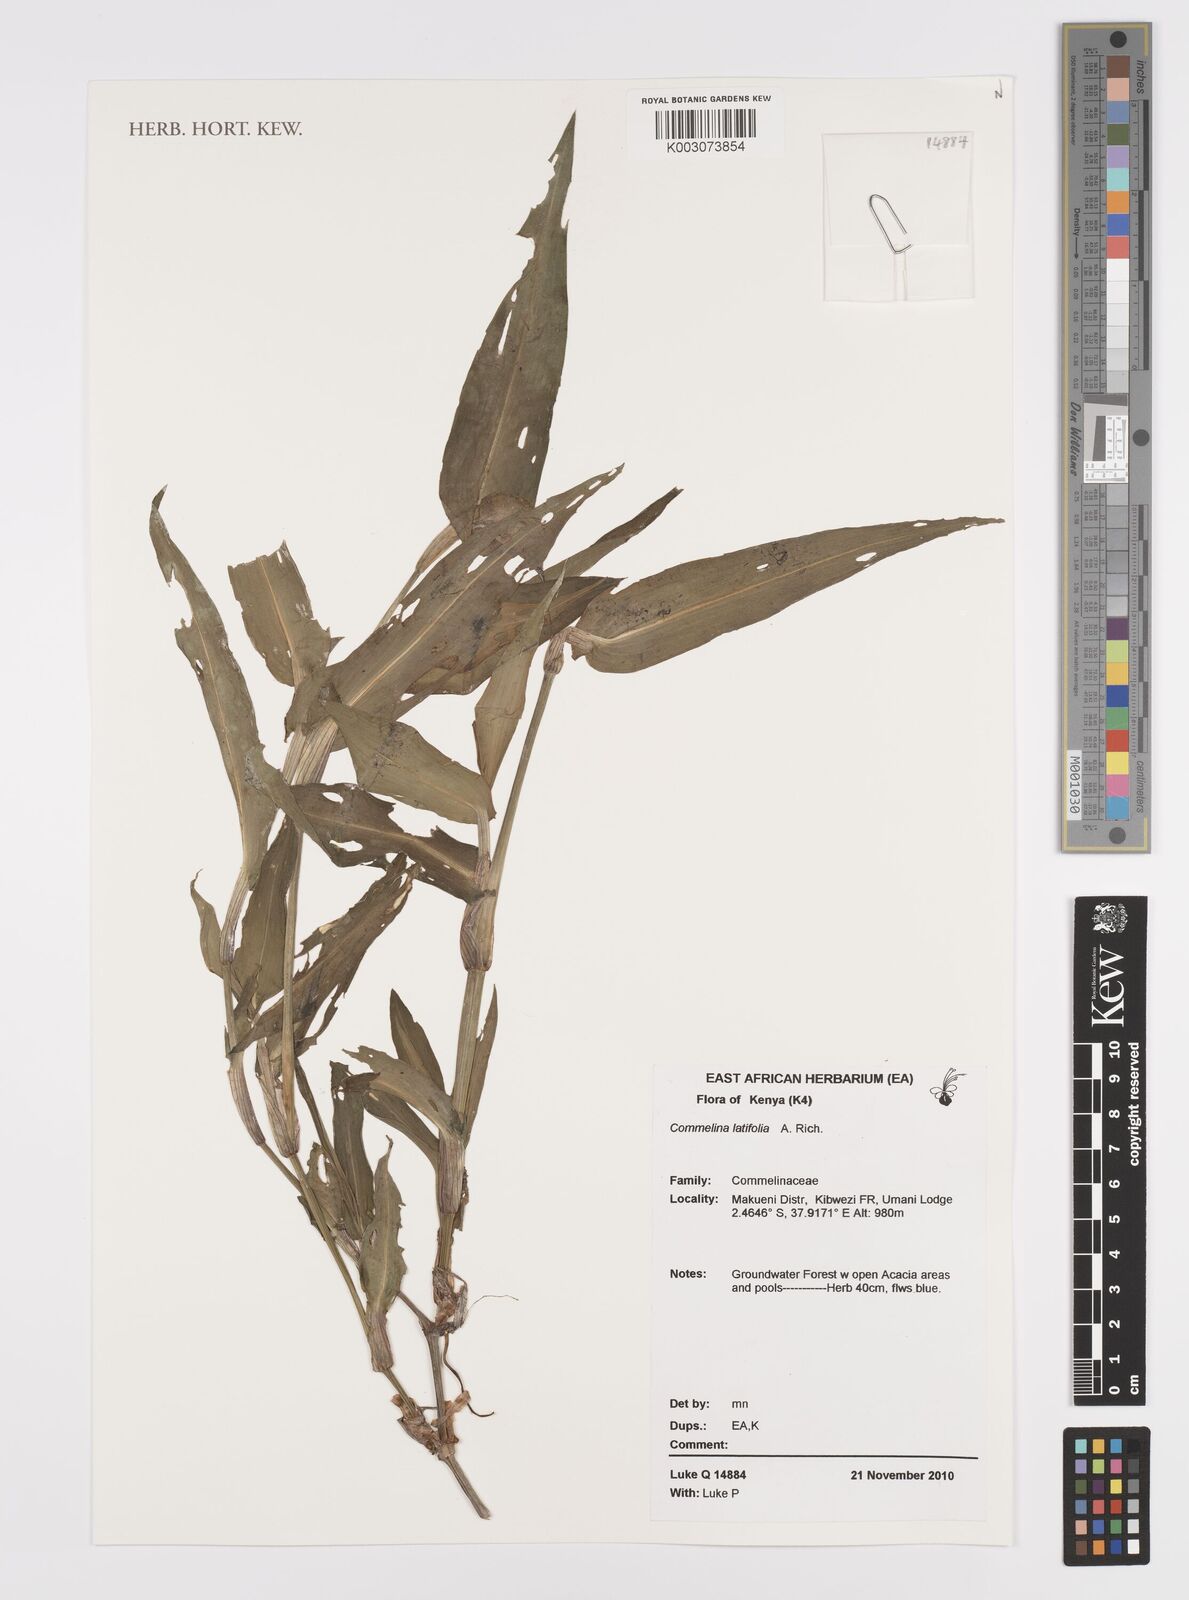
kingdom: Plantae
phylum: Tracheophyta
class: Liliopsida
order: Commelinales
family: Commelinaceae
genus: Commelina
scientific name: Commelina latifolia
